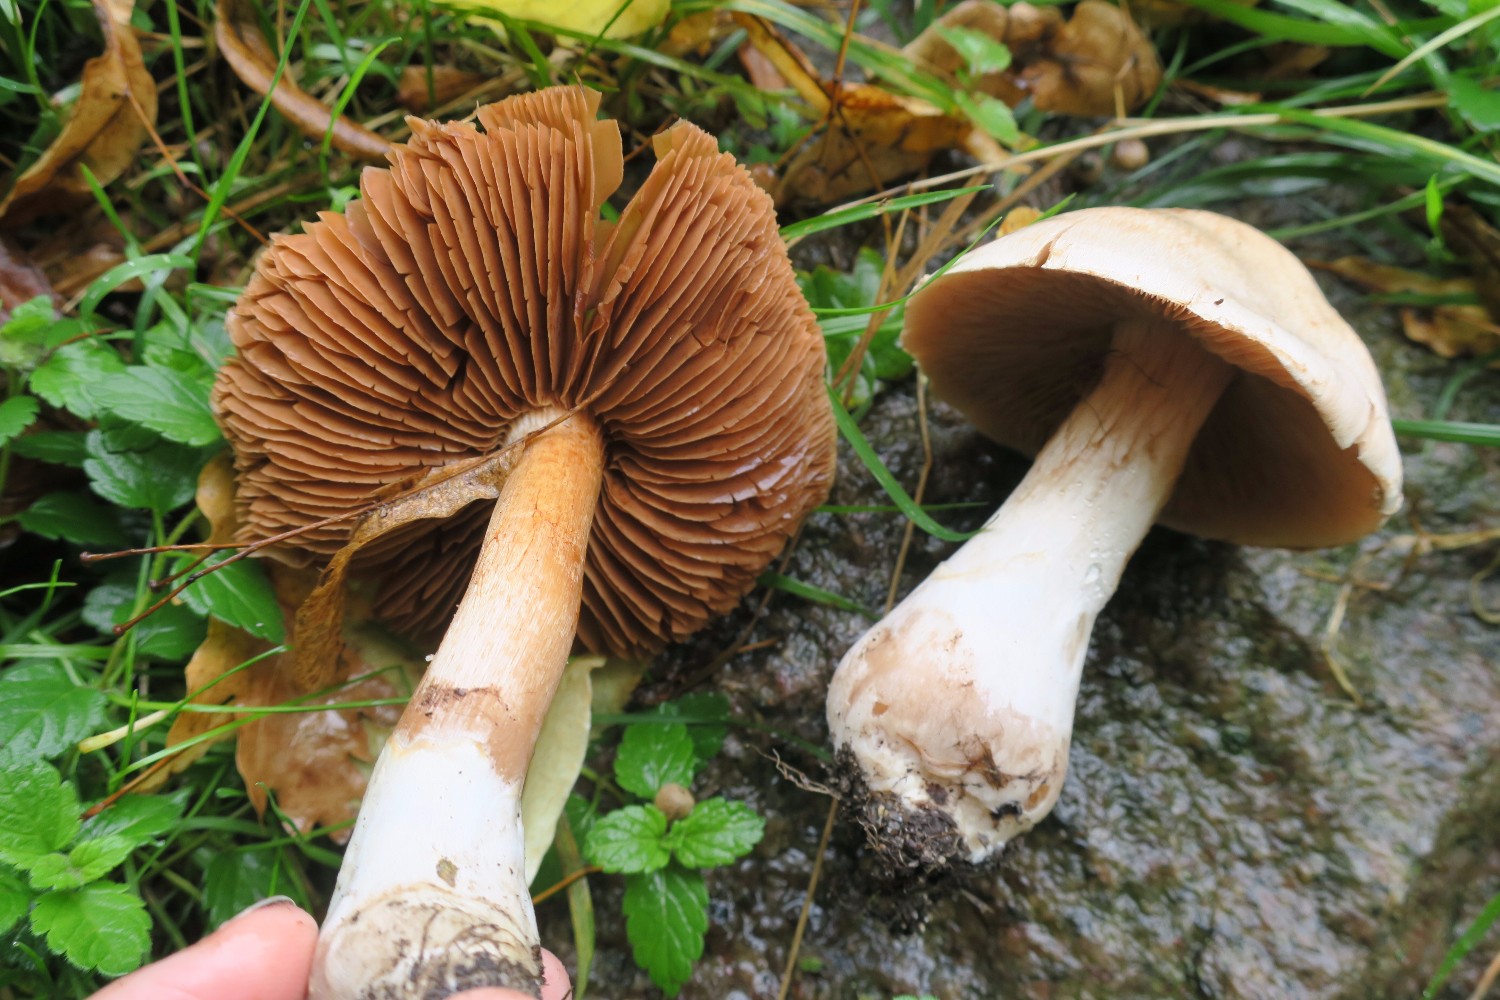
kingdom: Fungi
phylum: Basidiomycota
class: Agaricomycetes
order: Agaricales
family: Cortinariaceae
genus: Cortinarius
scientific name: Cortinarius turgidus
